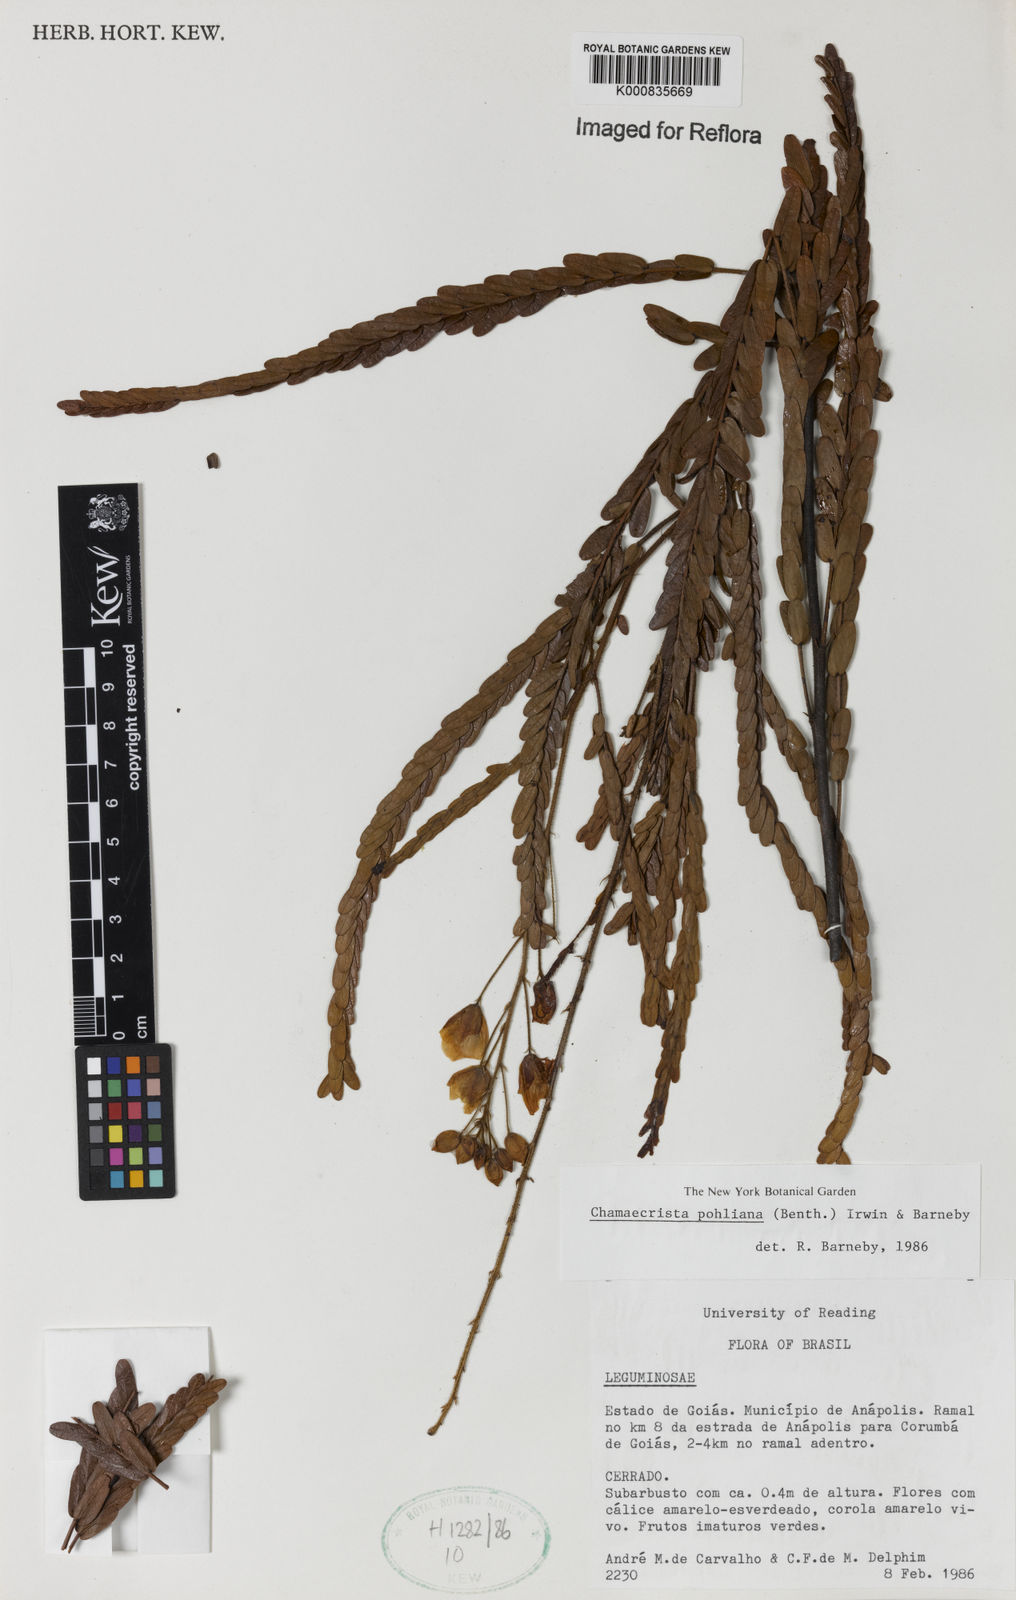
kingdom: Plantae
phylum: Tracheophyta
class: Magnoliopsida
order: Fabales
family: Fabaceae
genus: Chamaecrista
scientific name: Chamaecrista pohliana
